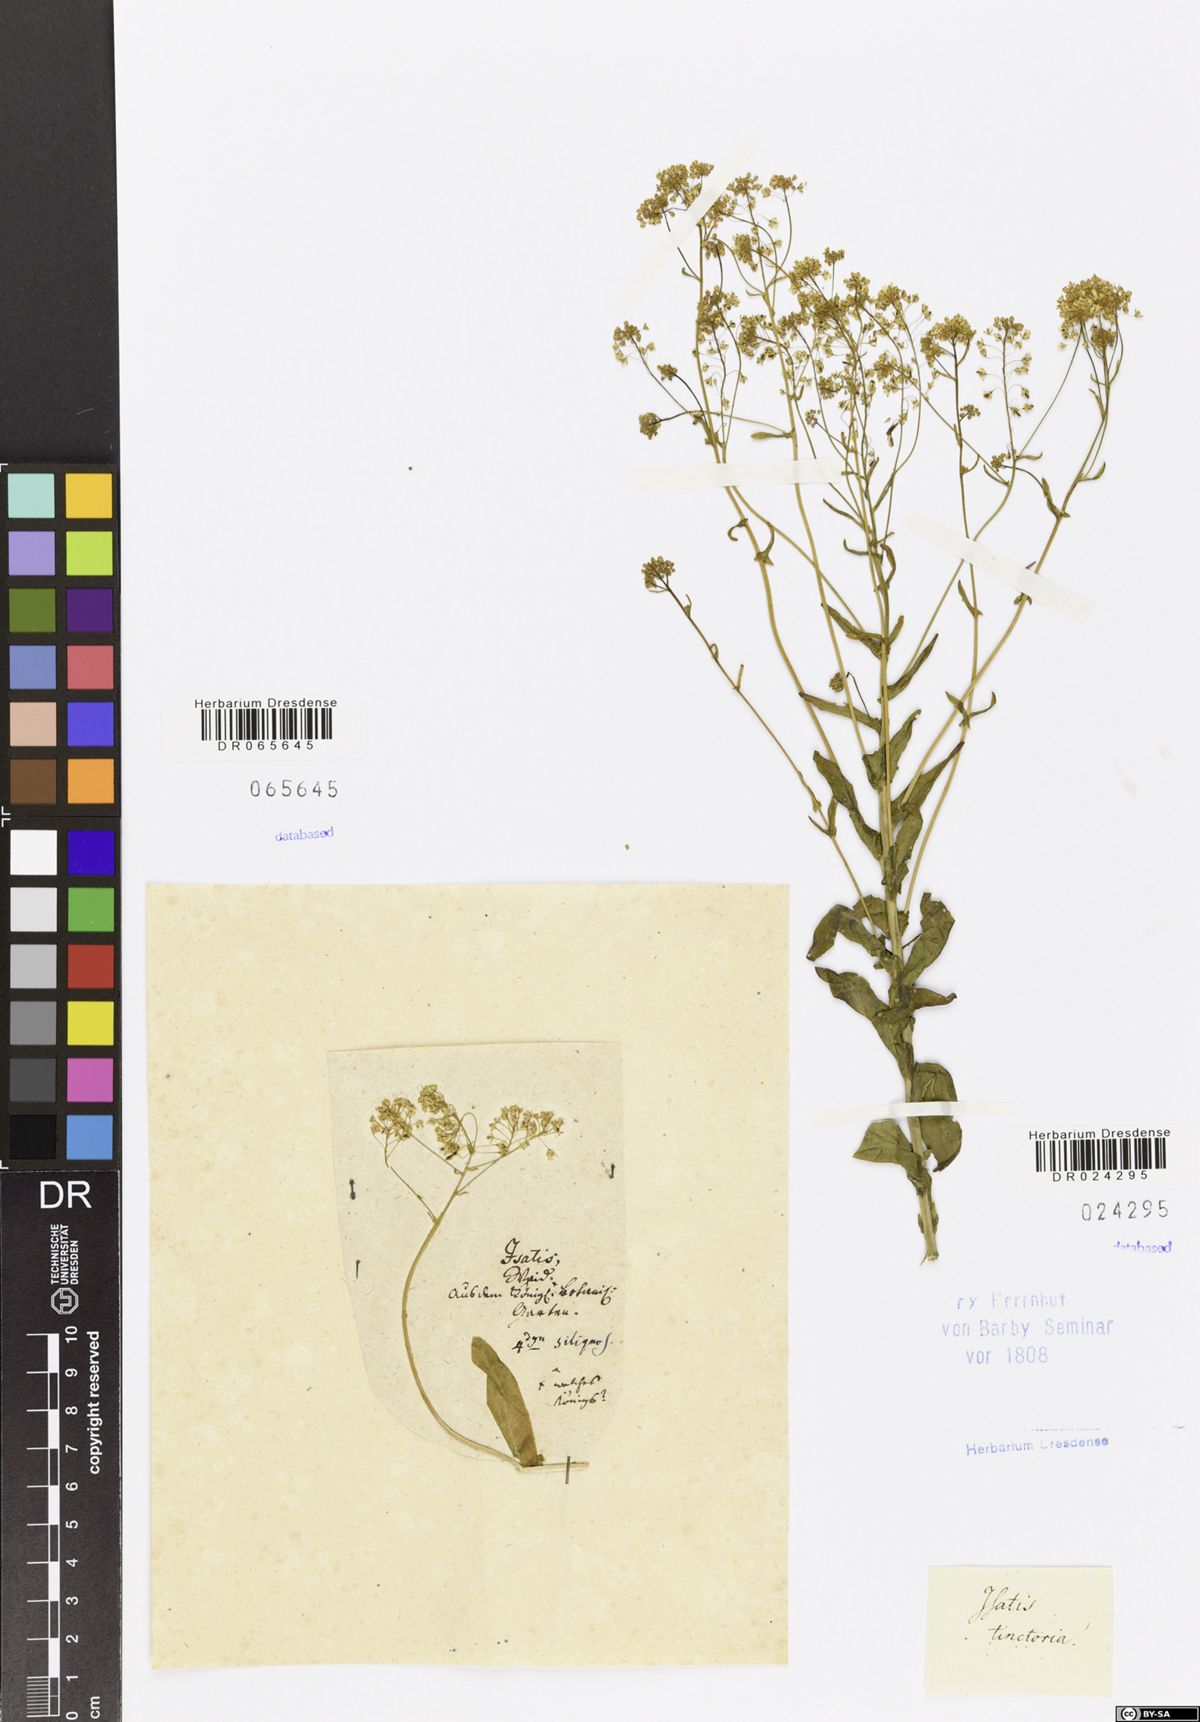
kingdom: Plantae
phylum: Tracheophyta
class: Magnoliopsida
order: Brassicales
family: Brassicaceae
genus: Isatis
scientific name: Isatis tinctoria
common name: Woad
